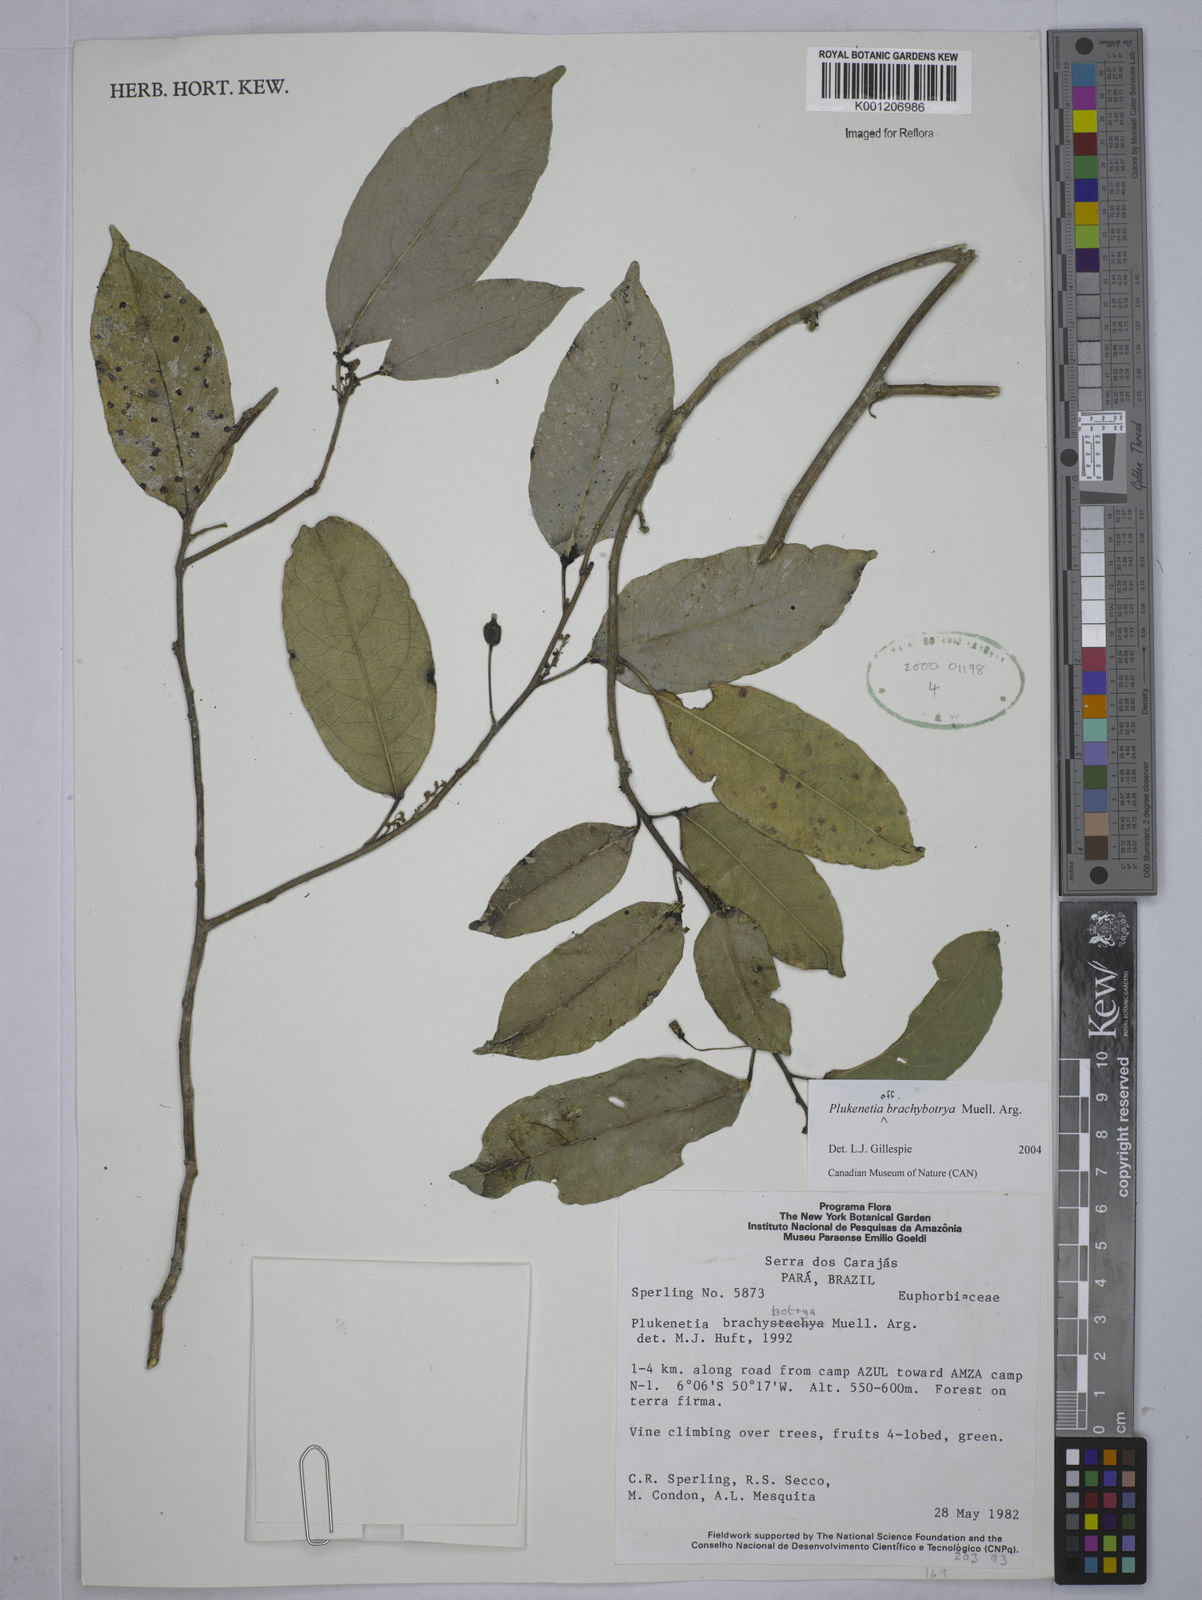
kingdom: Plantae
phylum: Tracheophyta
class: Magnoliopsida
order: Malpighiales
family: Euphorbiaceae
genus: Plukenetia
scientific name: Plukenetia
